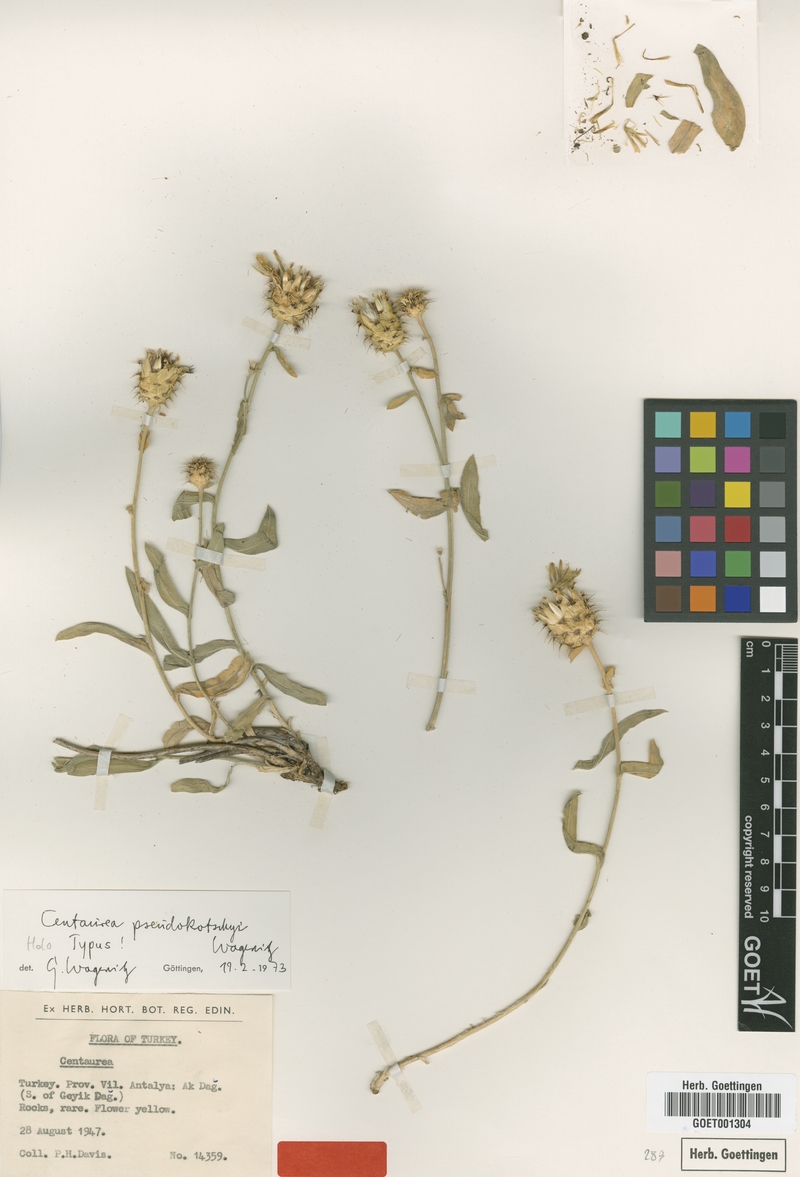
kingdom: Plantae
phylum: Tracheophyta
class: Magnoliopsida
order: Asterales
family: Asteraceae
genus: Centaurea
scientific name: Centaurea pseudokotschyi
